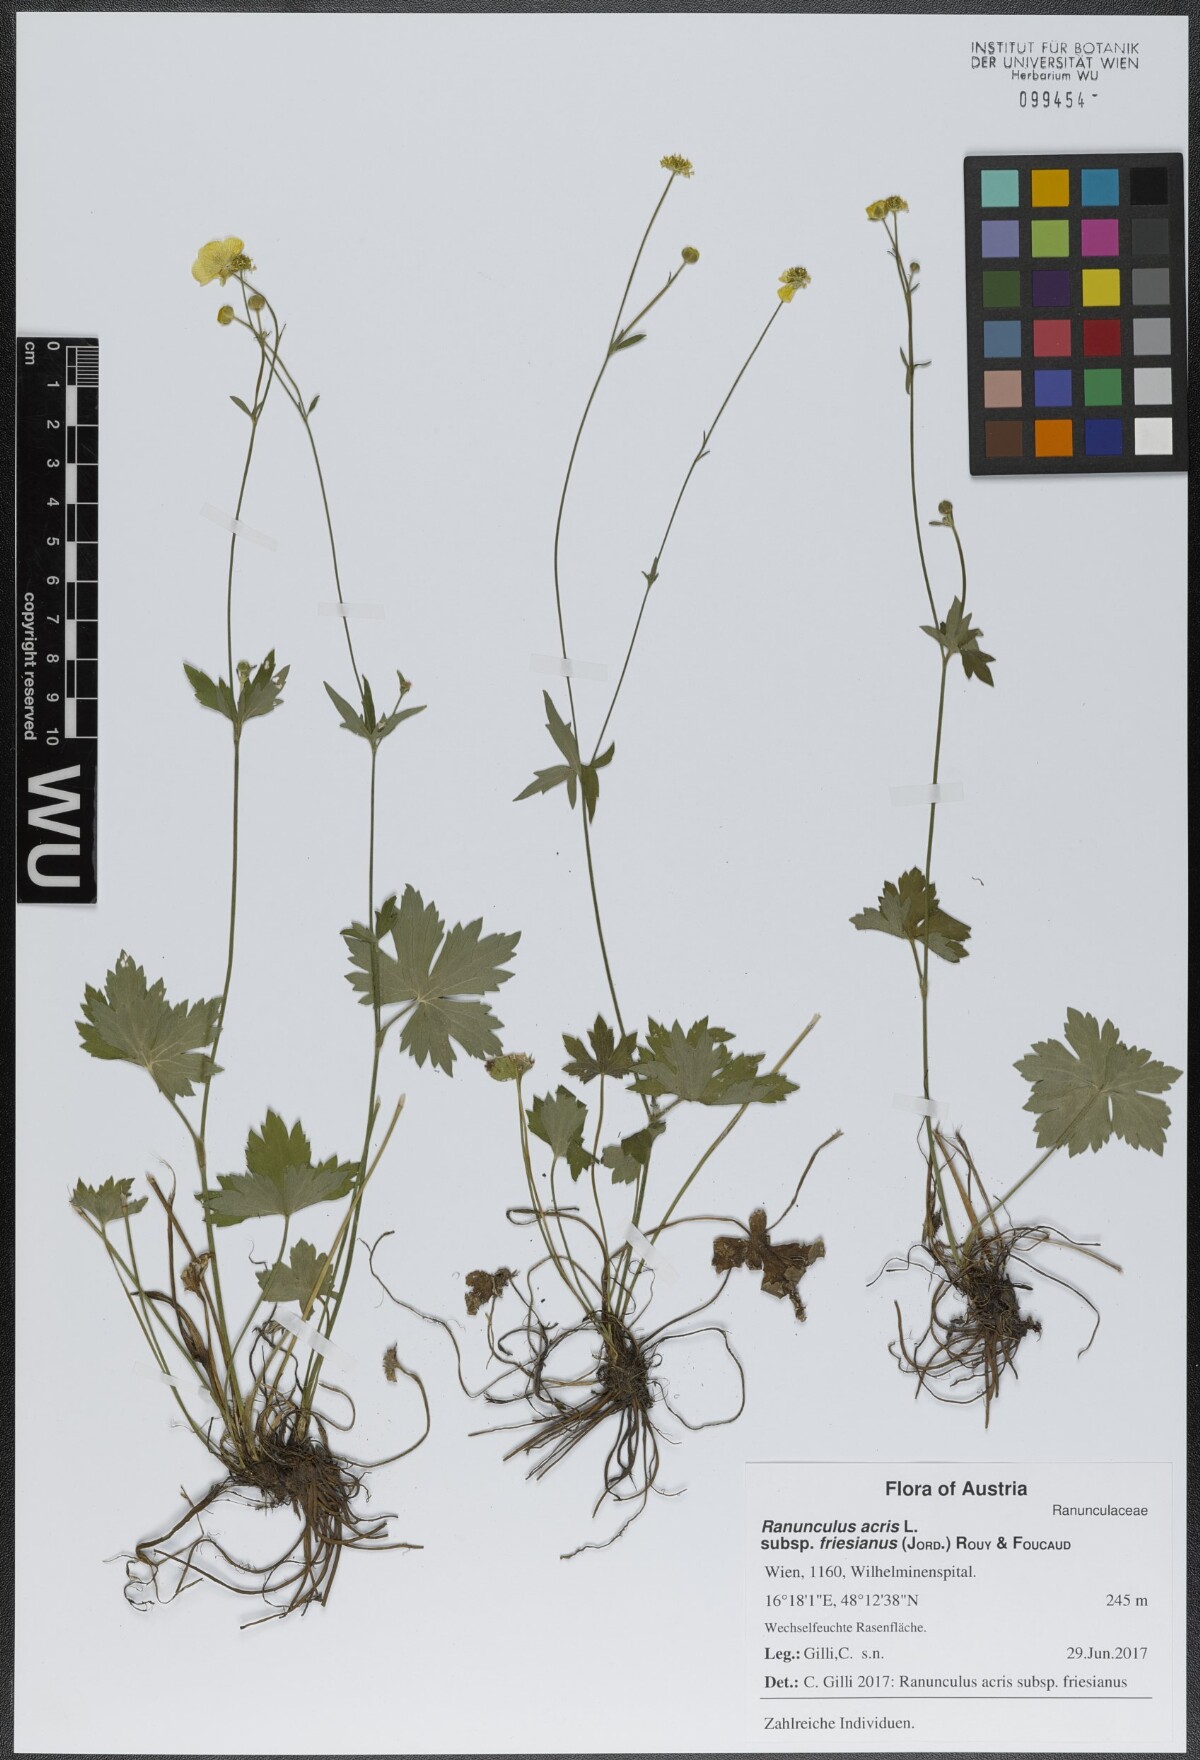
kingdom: Plantae
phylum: Tracheophyta
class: Magnoliopsida
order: Ranunculales
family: Ranunculaceae
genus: Ranunculus
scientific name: Ranunculus acris
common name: Meadow buttercup
